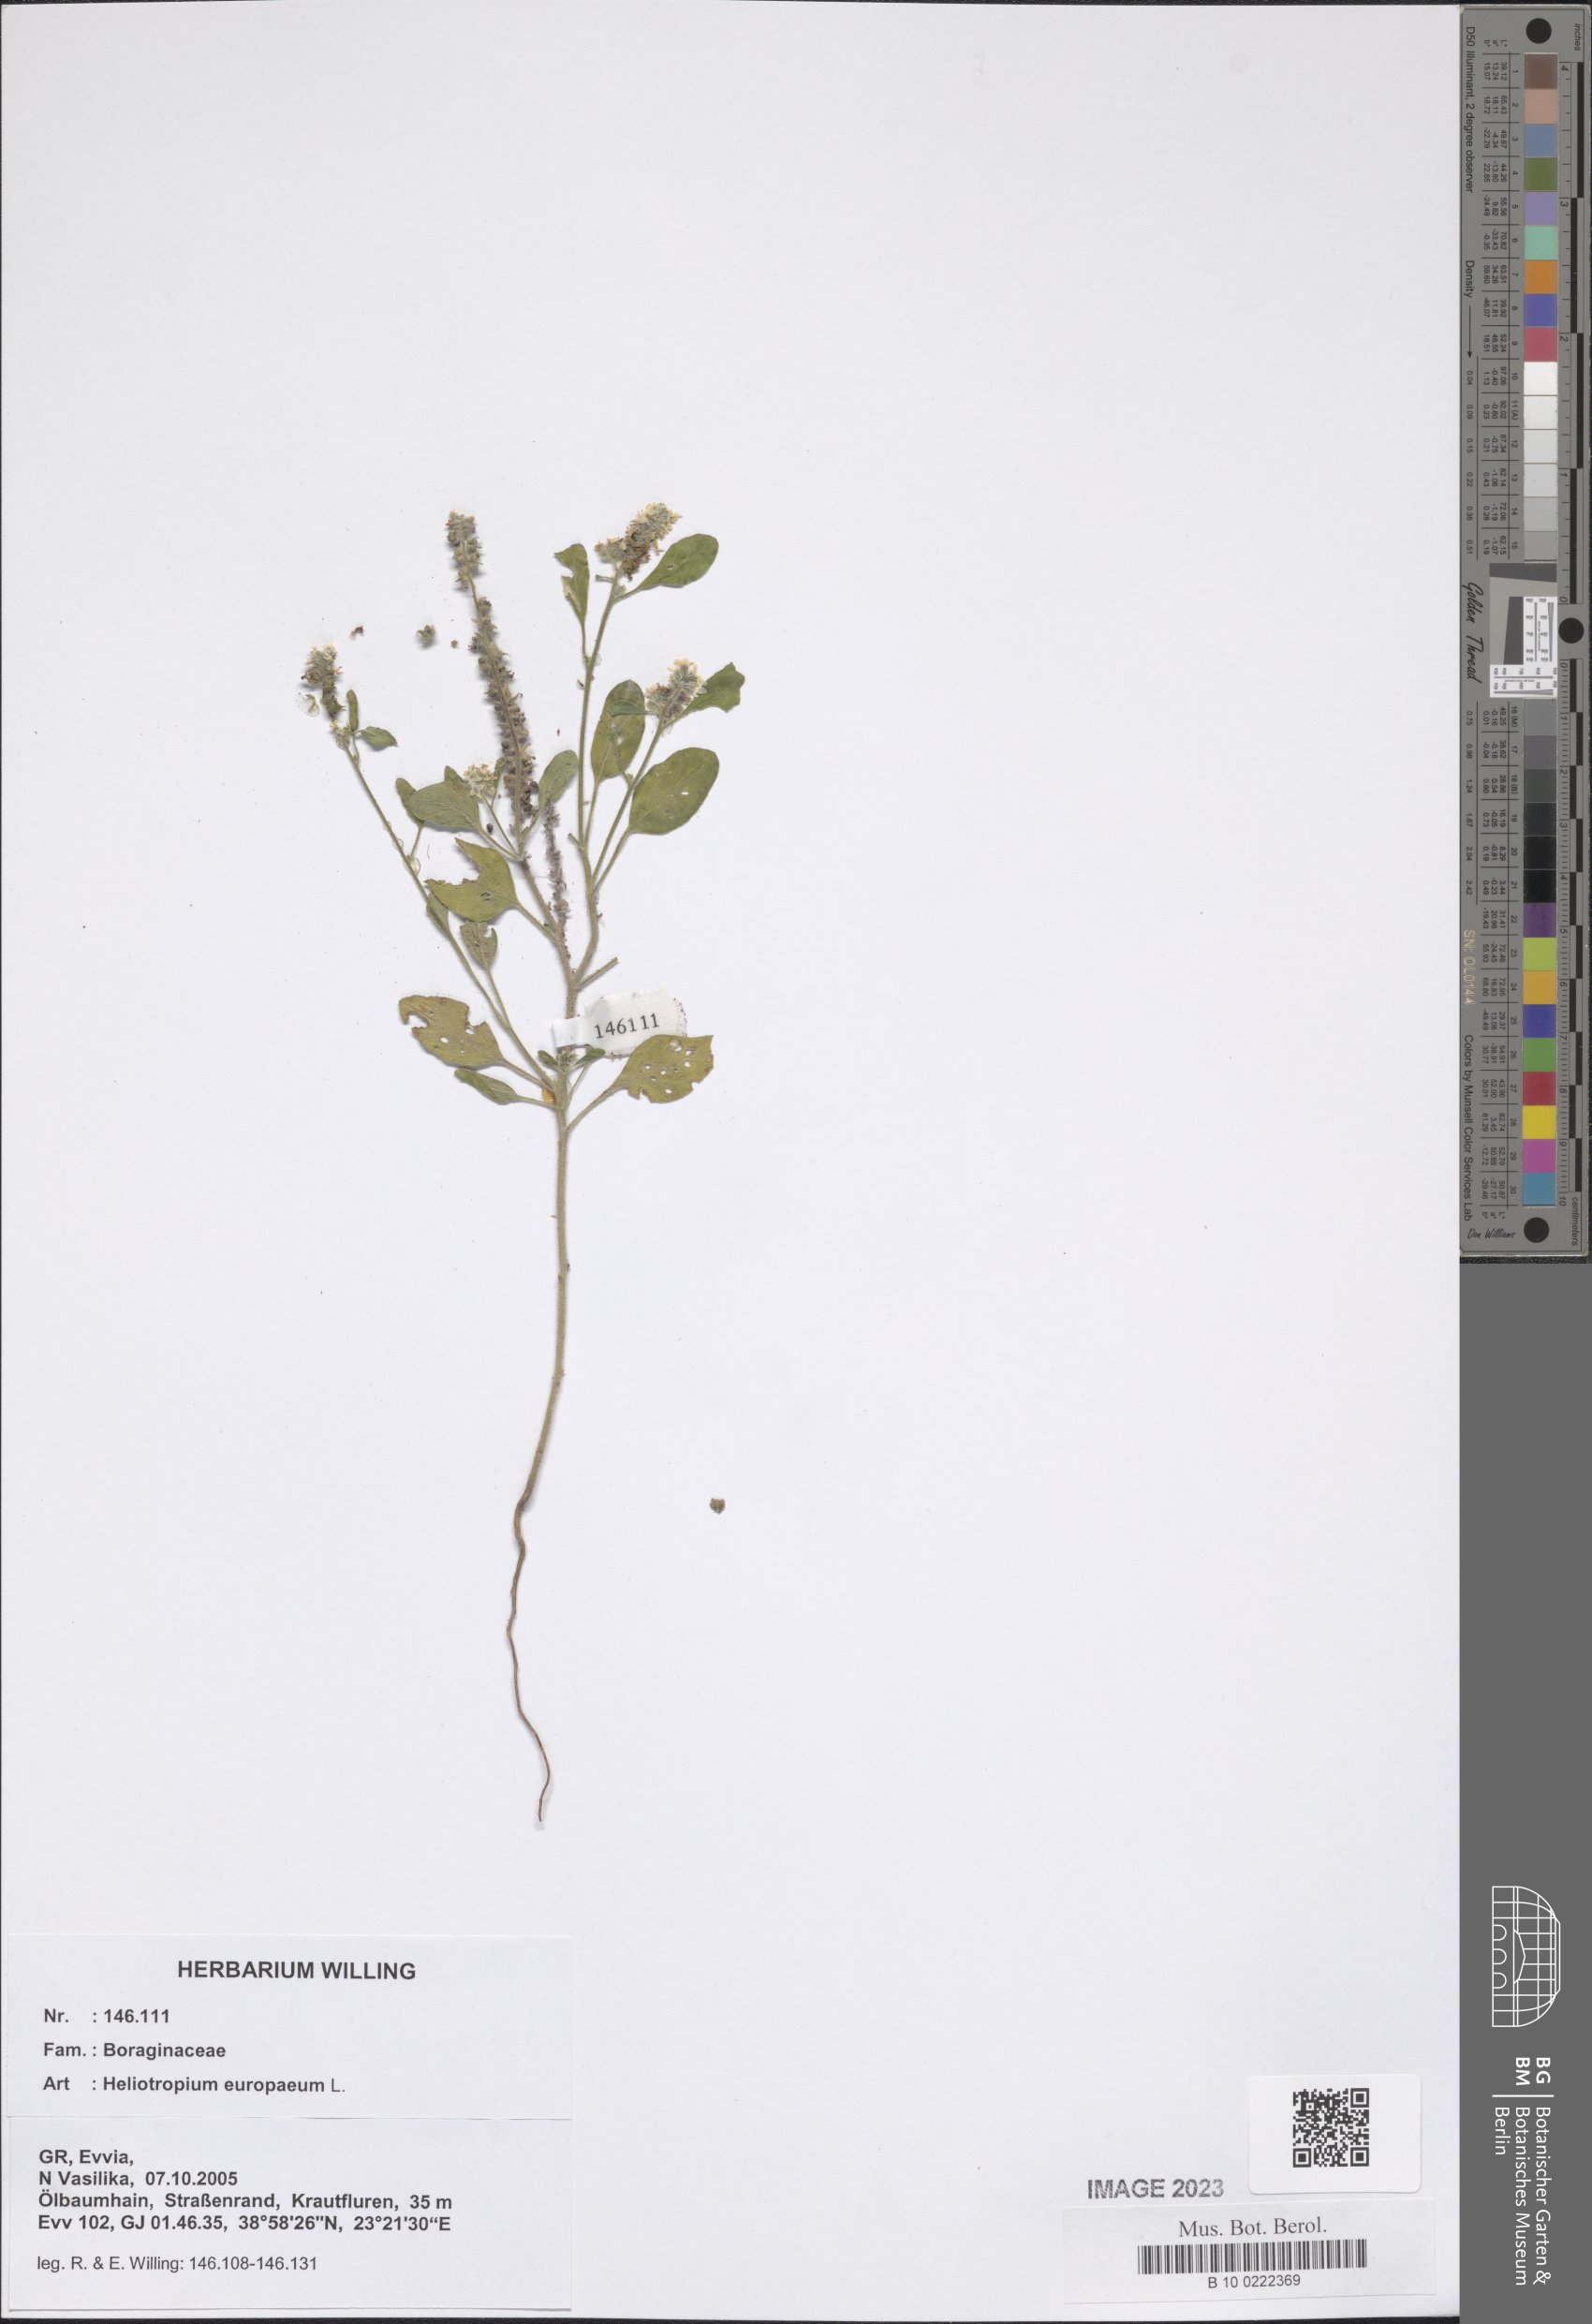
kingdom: Plantae
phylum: Tracheophyta
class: Magnoliopsida
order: Boraginales
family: Heliotropiaceae
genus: Heliotropium
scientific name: Heliotropium europaeum
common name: European heliotrope
